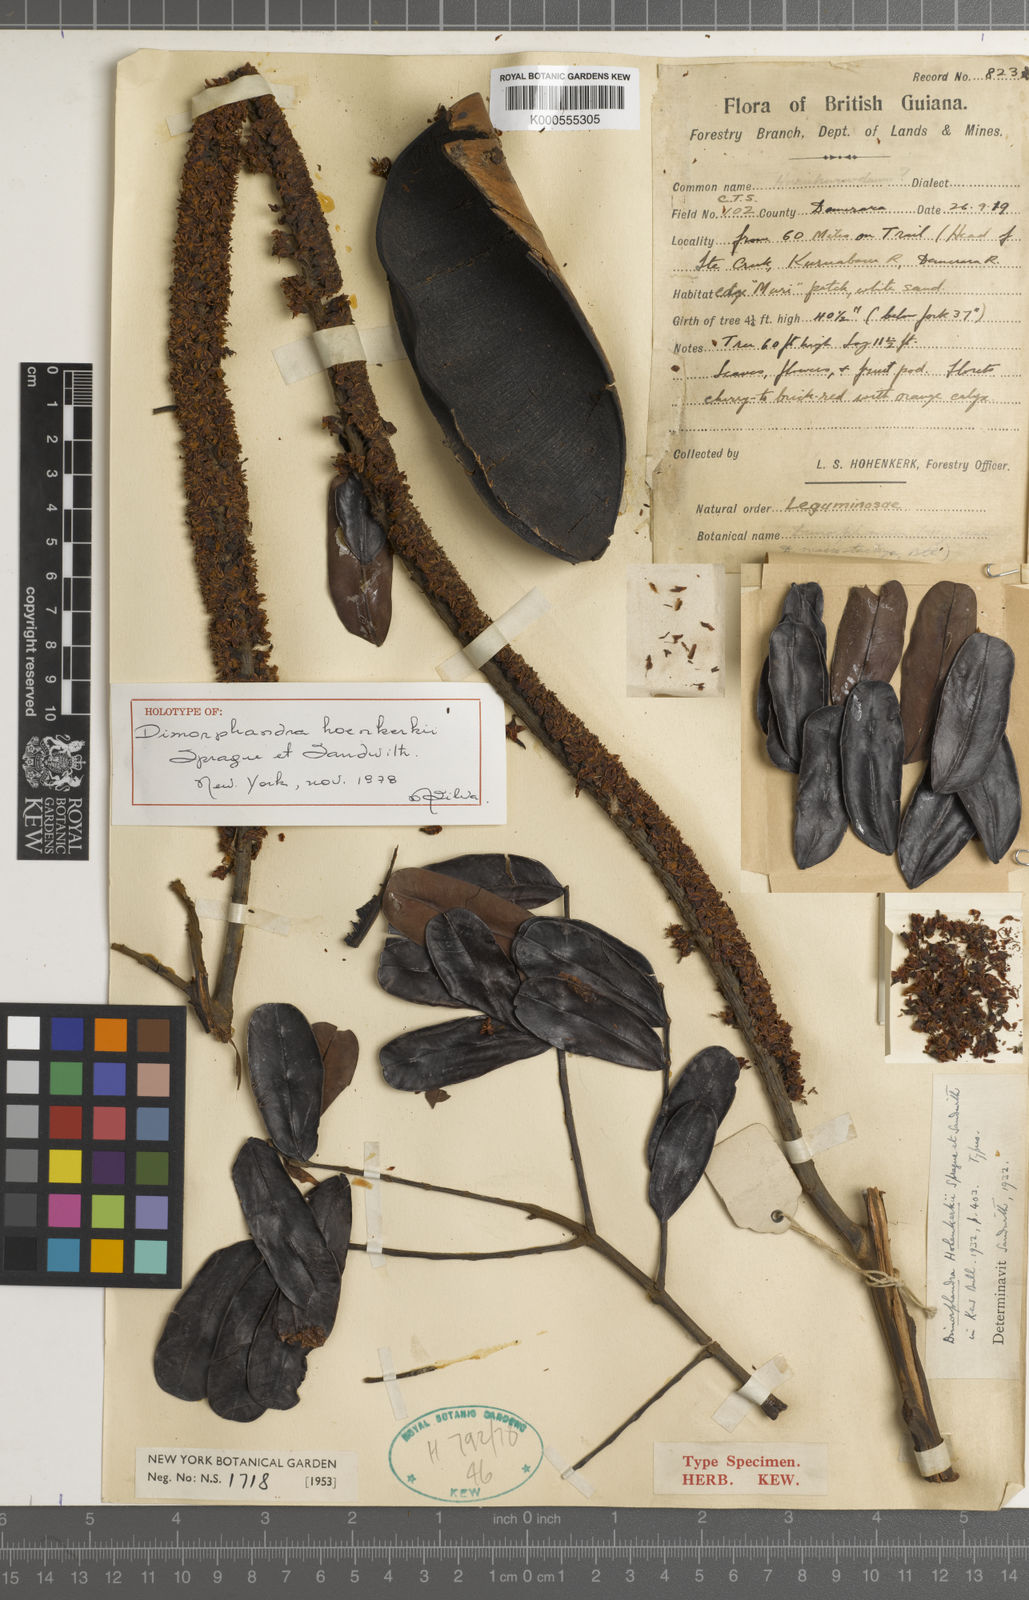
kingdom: Plantae
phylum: Tracheophyta
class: Magnoliopsida
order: Fabales
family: Fabaceae
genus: Dimorphandra
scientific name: Dimorphandra polyandra
